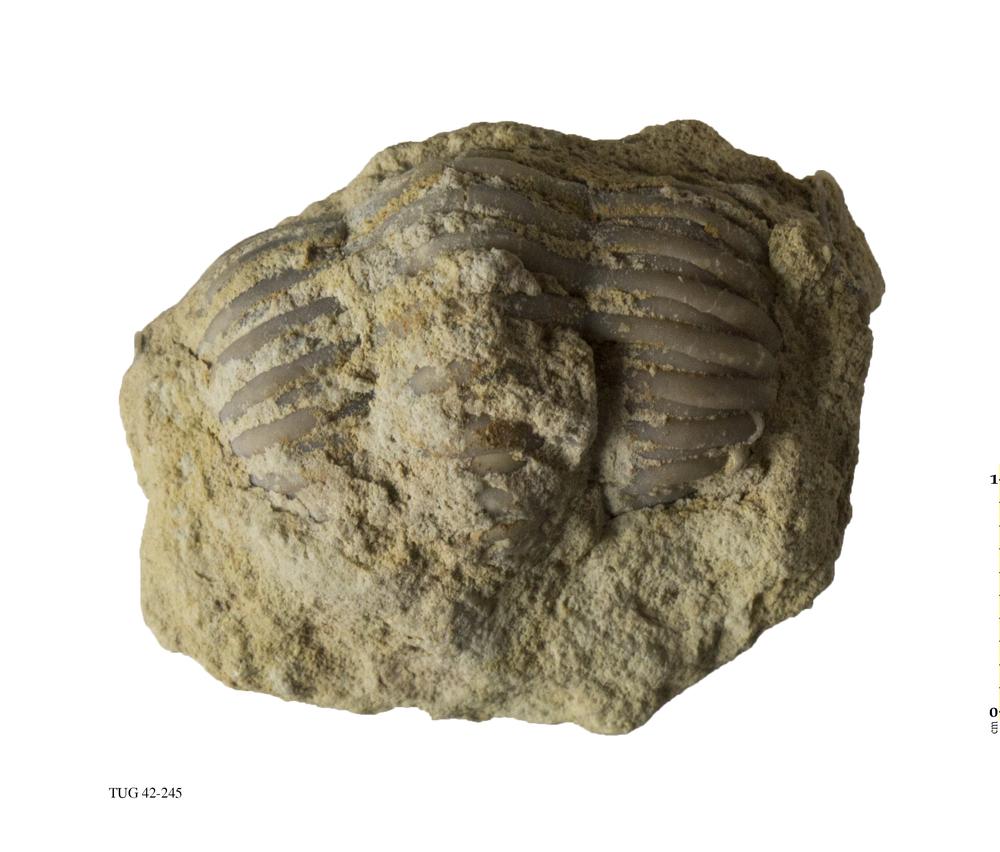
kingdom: Animalia
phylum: Arthropoda
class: Trilobita
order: Phacopida
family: Phacopidae
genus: Phacops
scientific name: Phacops
